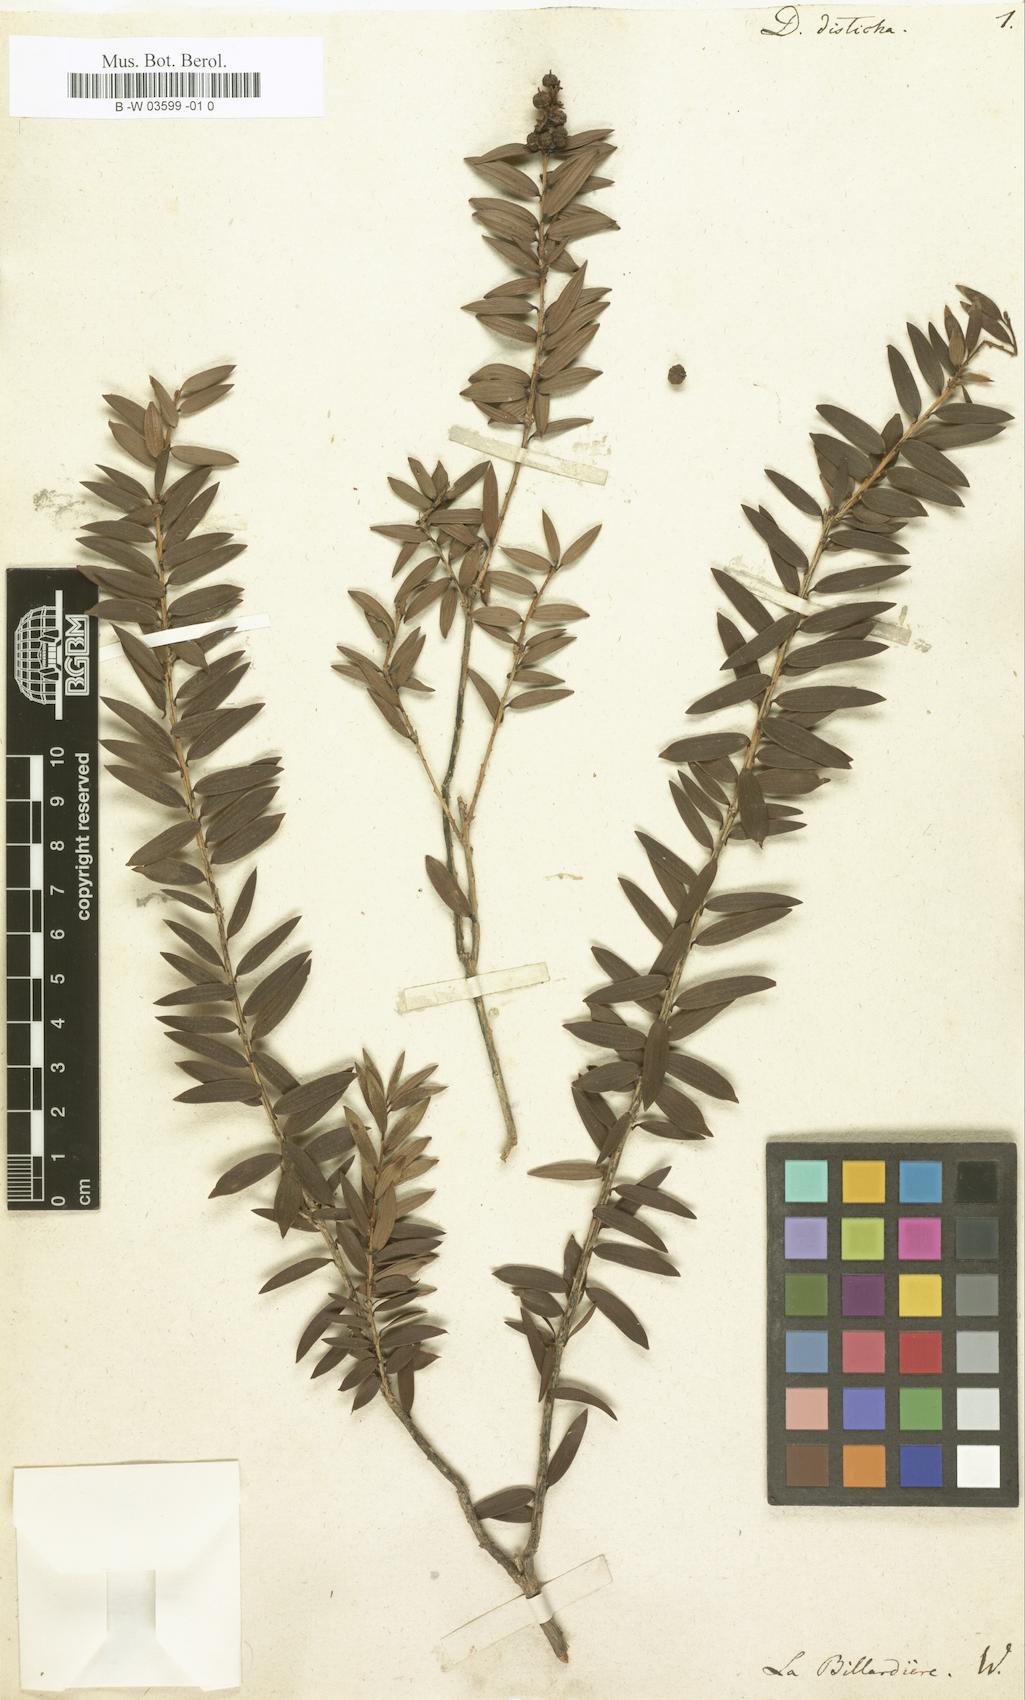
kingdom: Plantae
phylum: Tracheophyta
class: Magnoliopsida
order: Ericales
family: Ericaceae
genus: Trochocarpa
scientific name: Trochocarpa disticha
